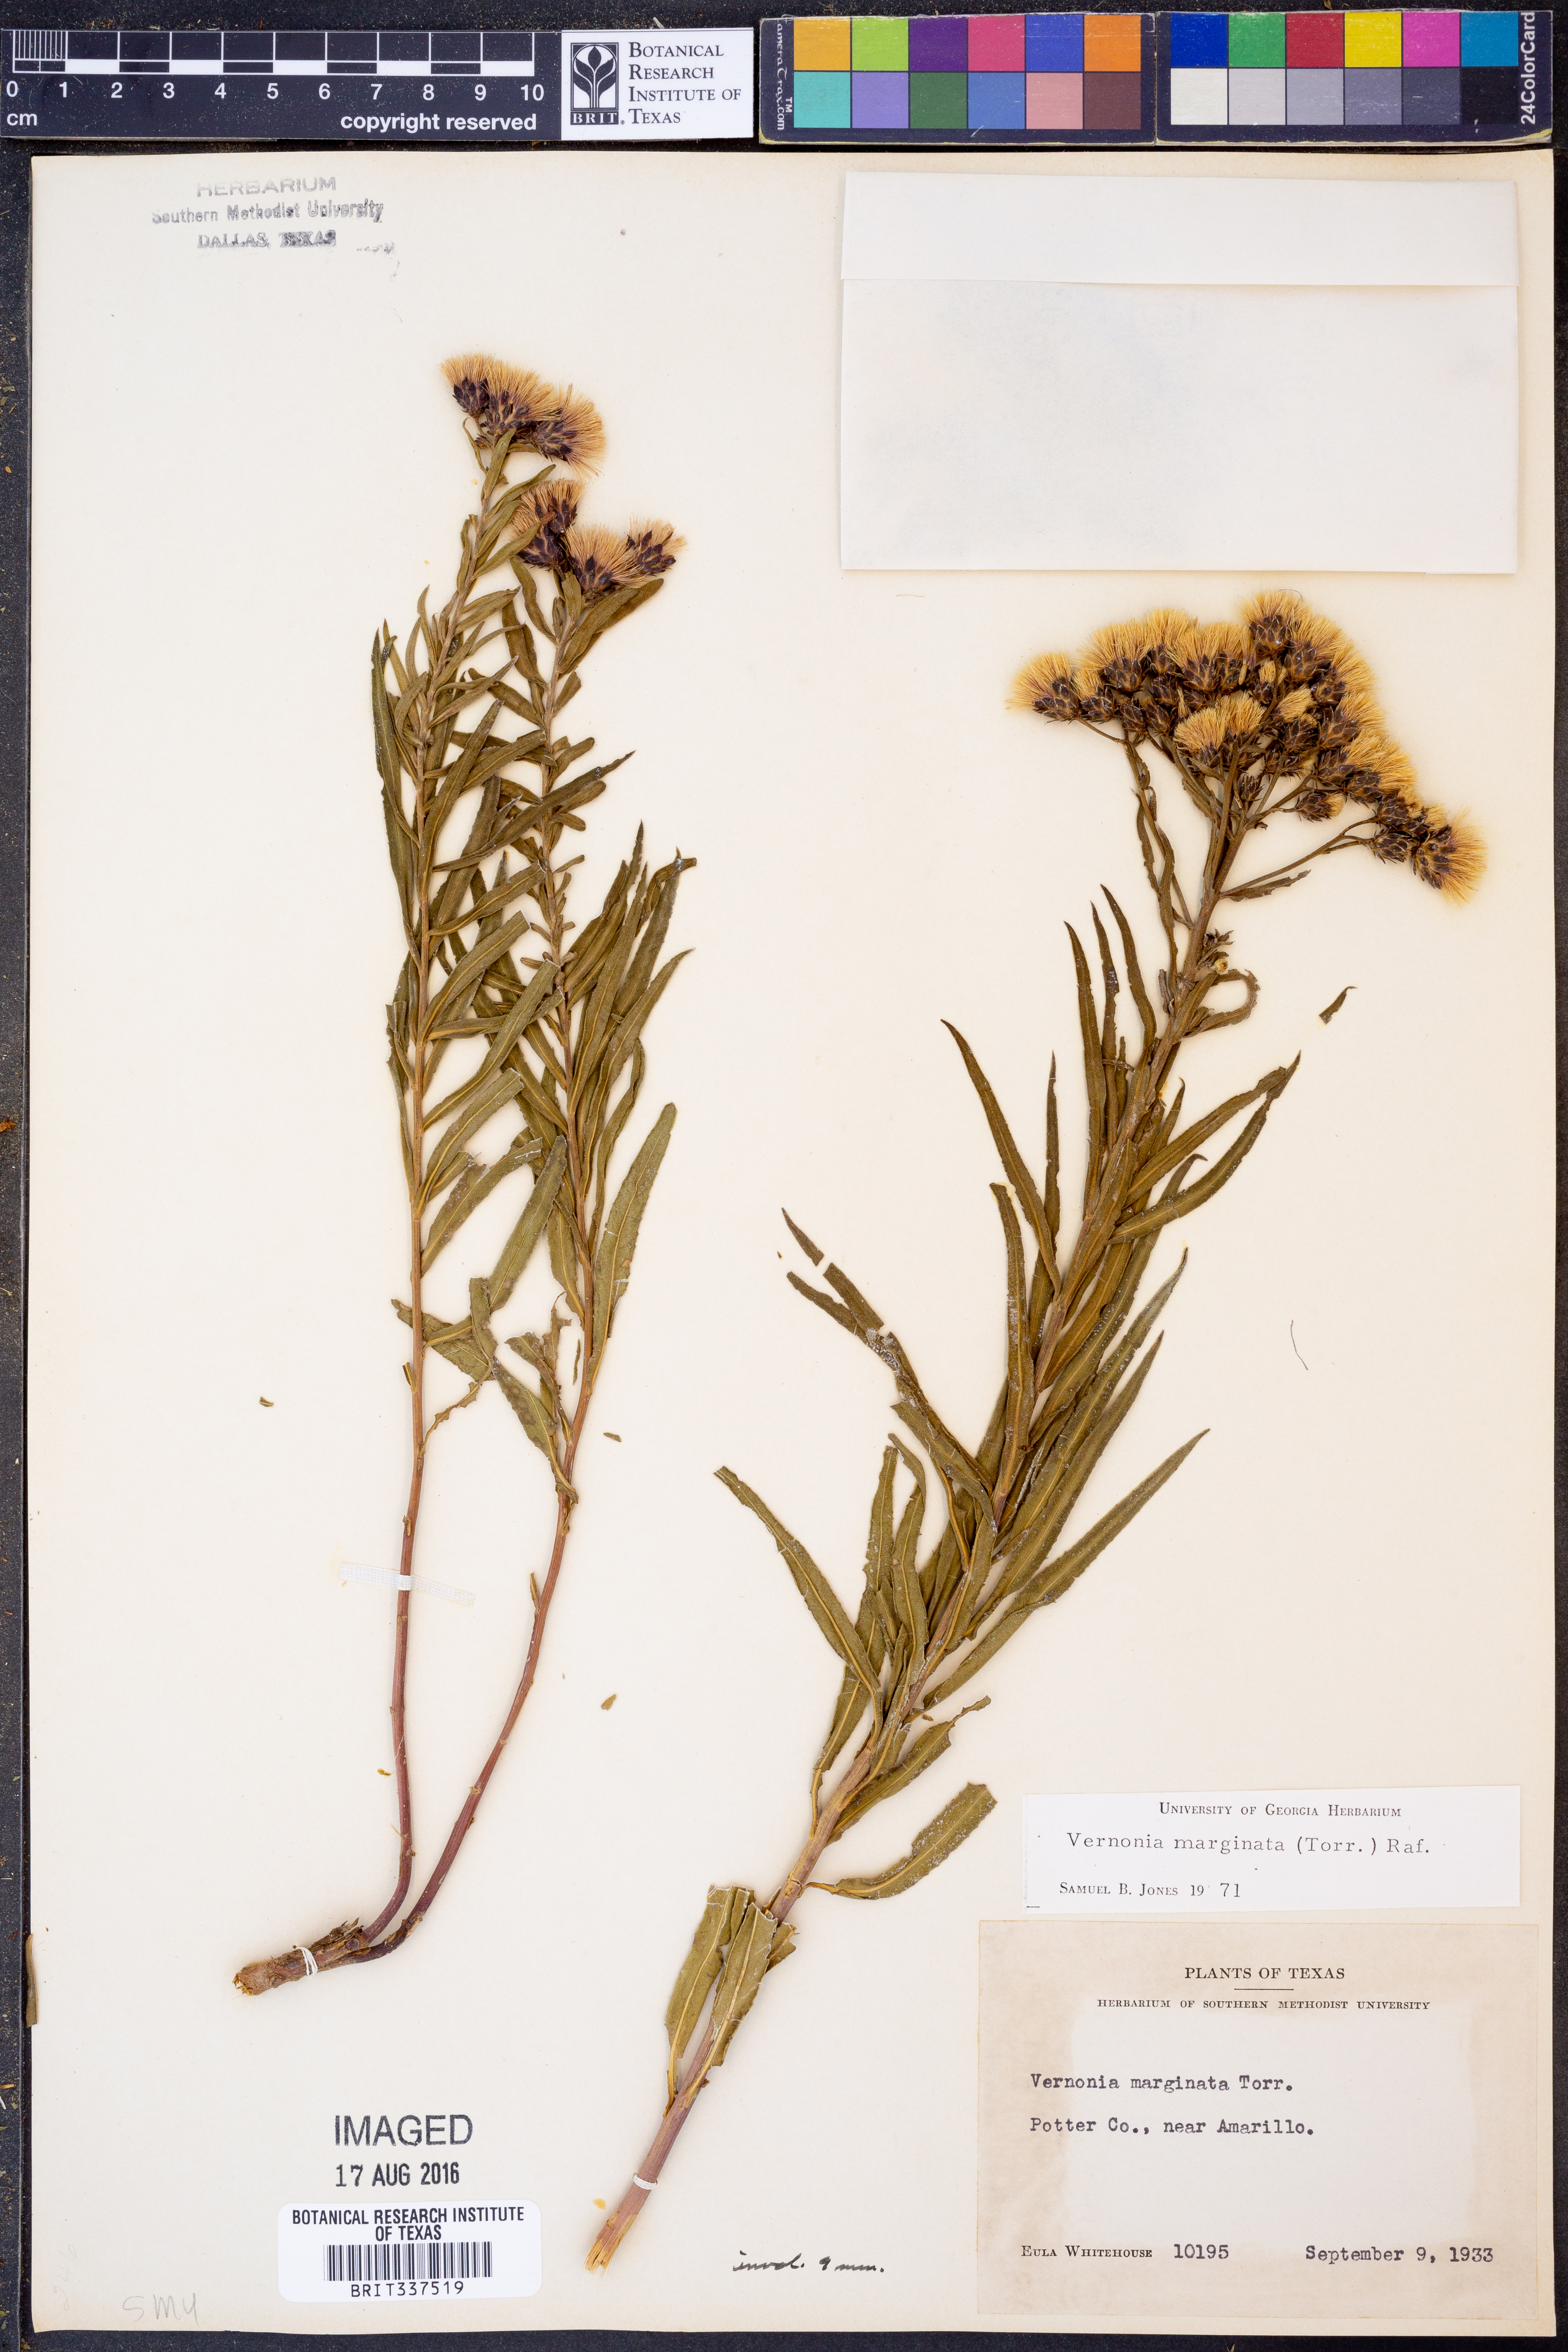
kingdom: Plantae
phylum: Tracheophyta
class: Magnoliopsida
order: Asterales
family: Asteraceae
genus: Vernonia
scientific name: Vernonia marginata
